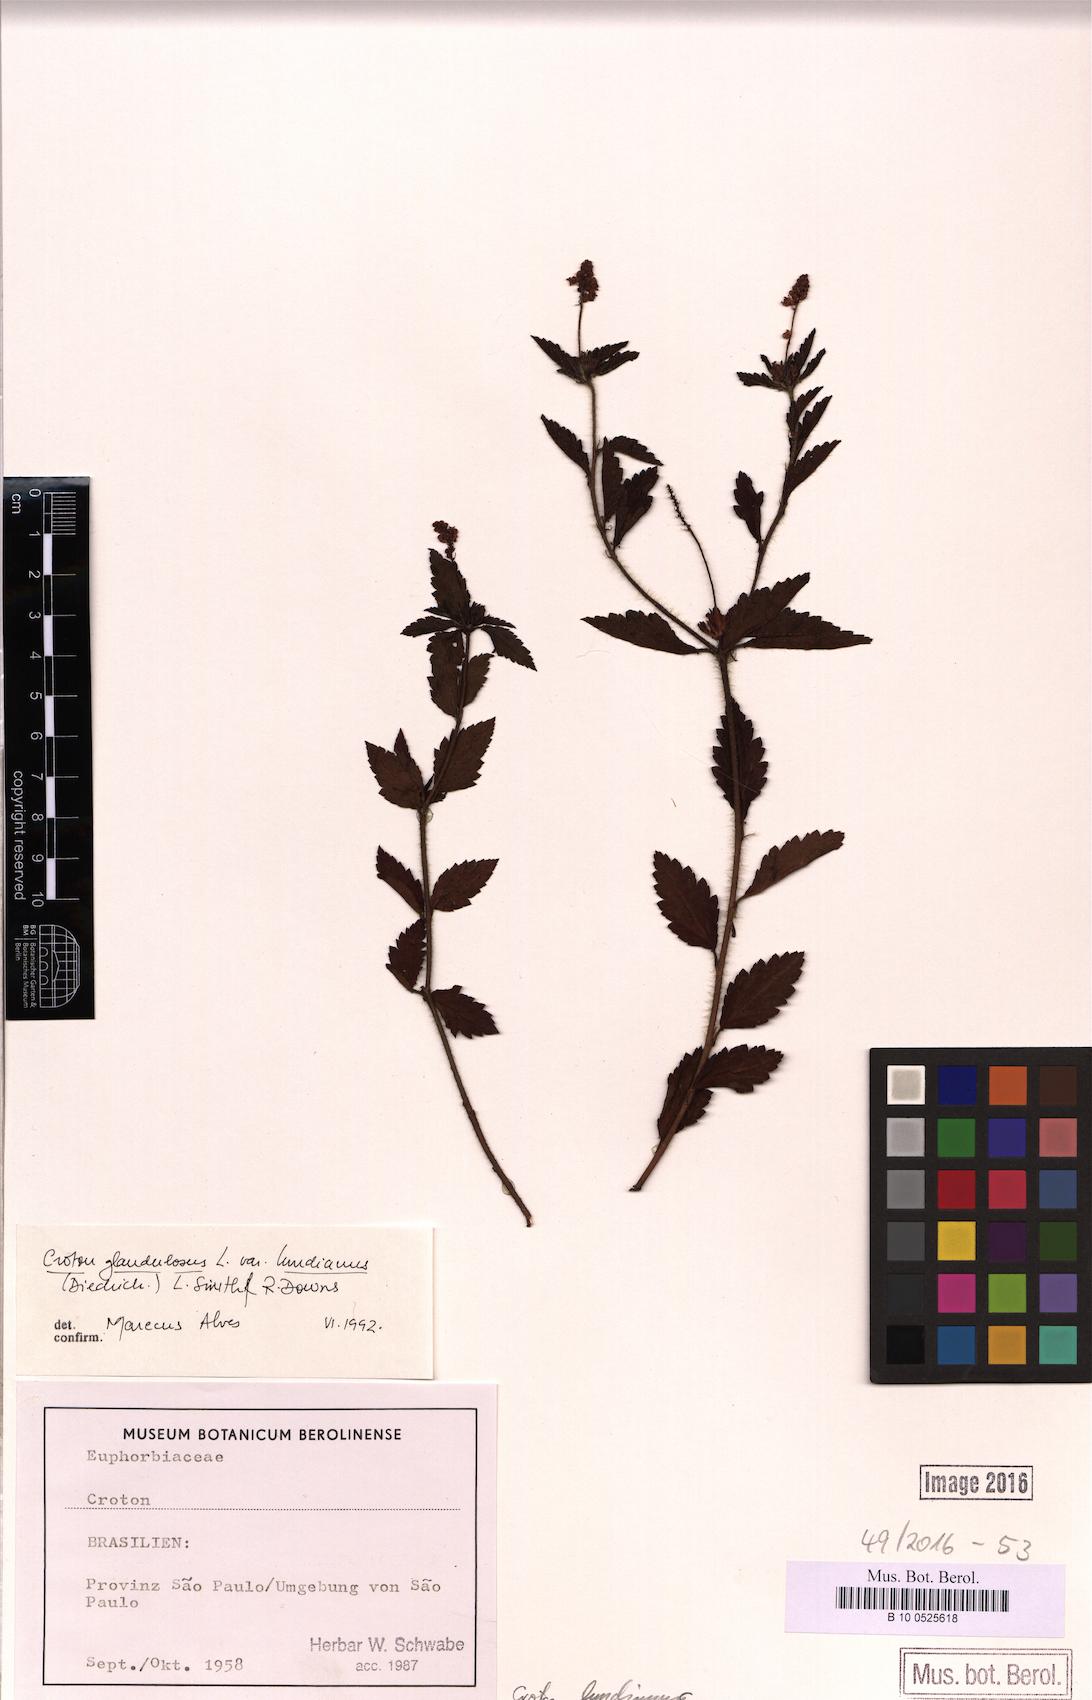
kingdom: Plantae
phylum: Tracheophyta
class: Magnoliopsida
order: Malpighiales
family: Euphorbiaceae
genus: Croton
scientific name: Croton lundianus
